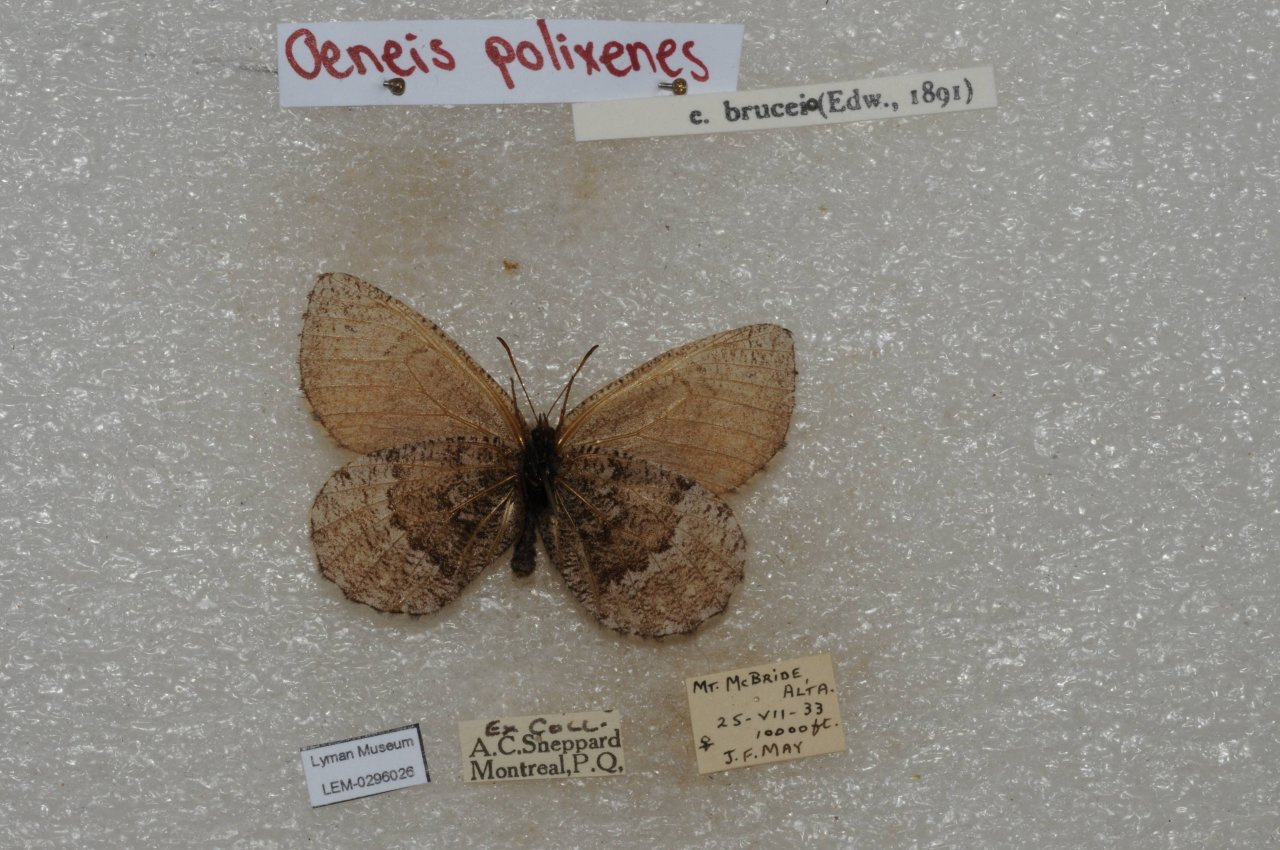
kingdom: Animalia
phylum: Arthropoda
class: Insecta
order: Lepidoptera
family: Nymphalidae
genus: Oeneis
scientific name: Oeneis bore
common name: Polixenes Arctic
